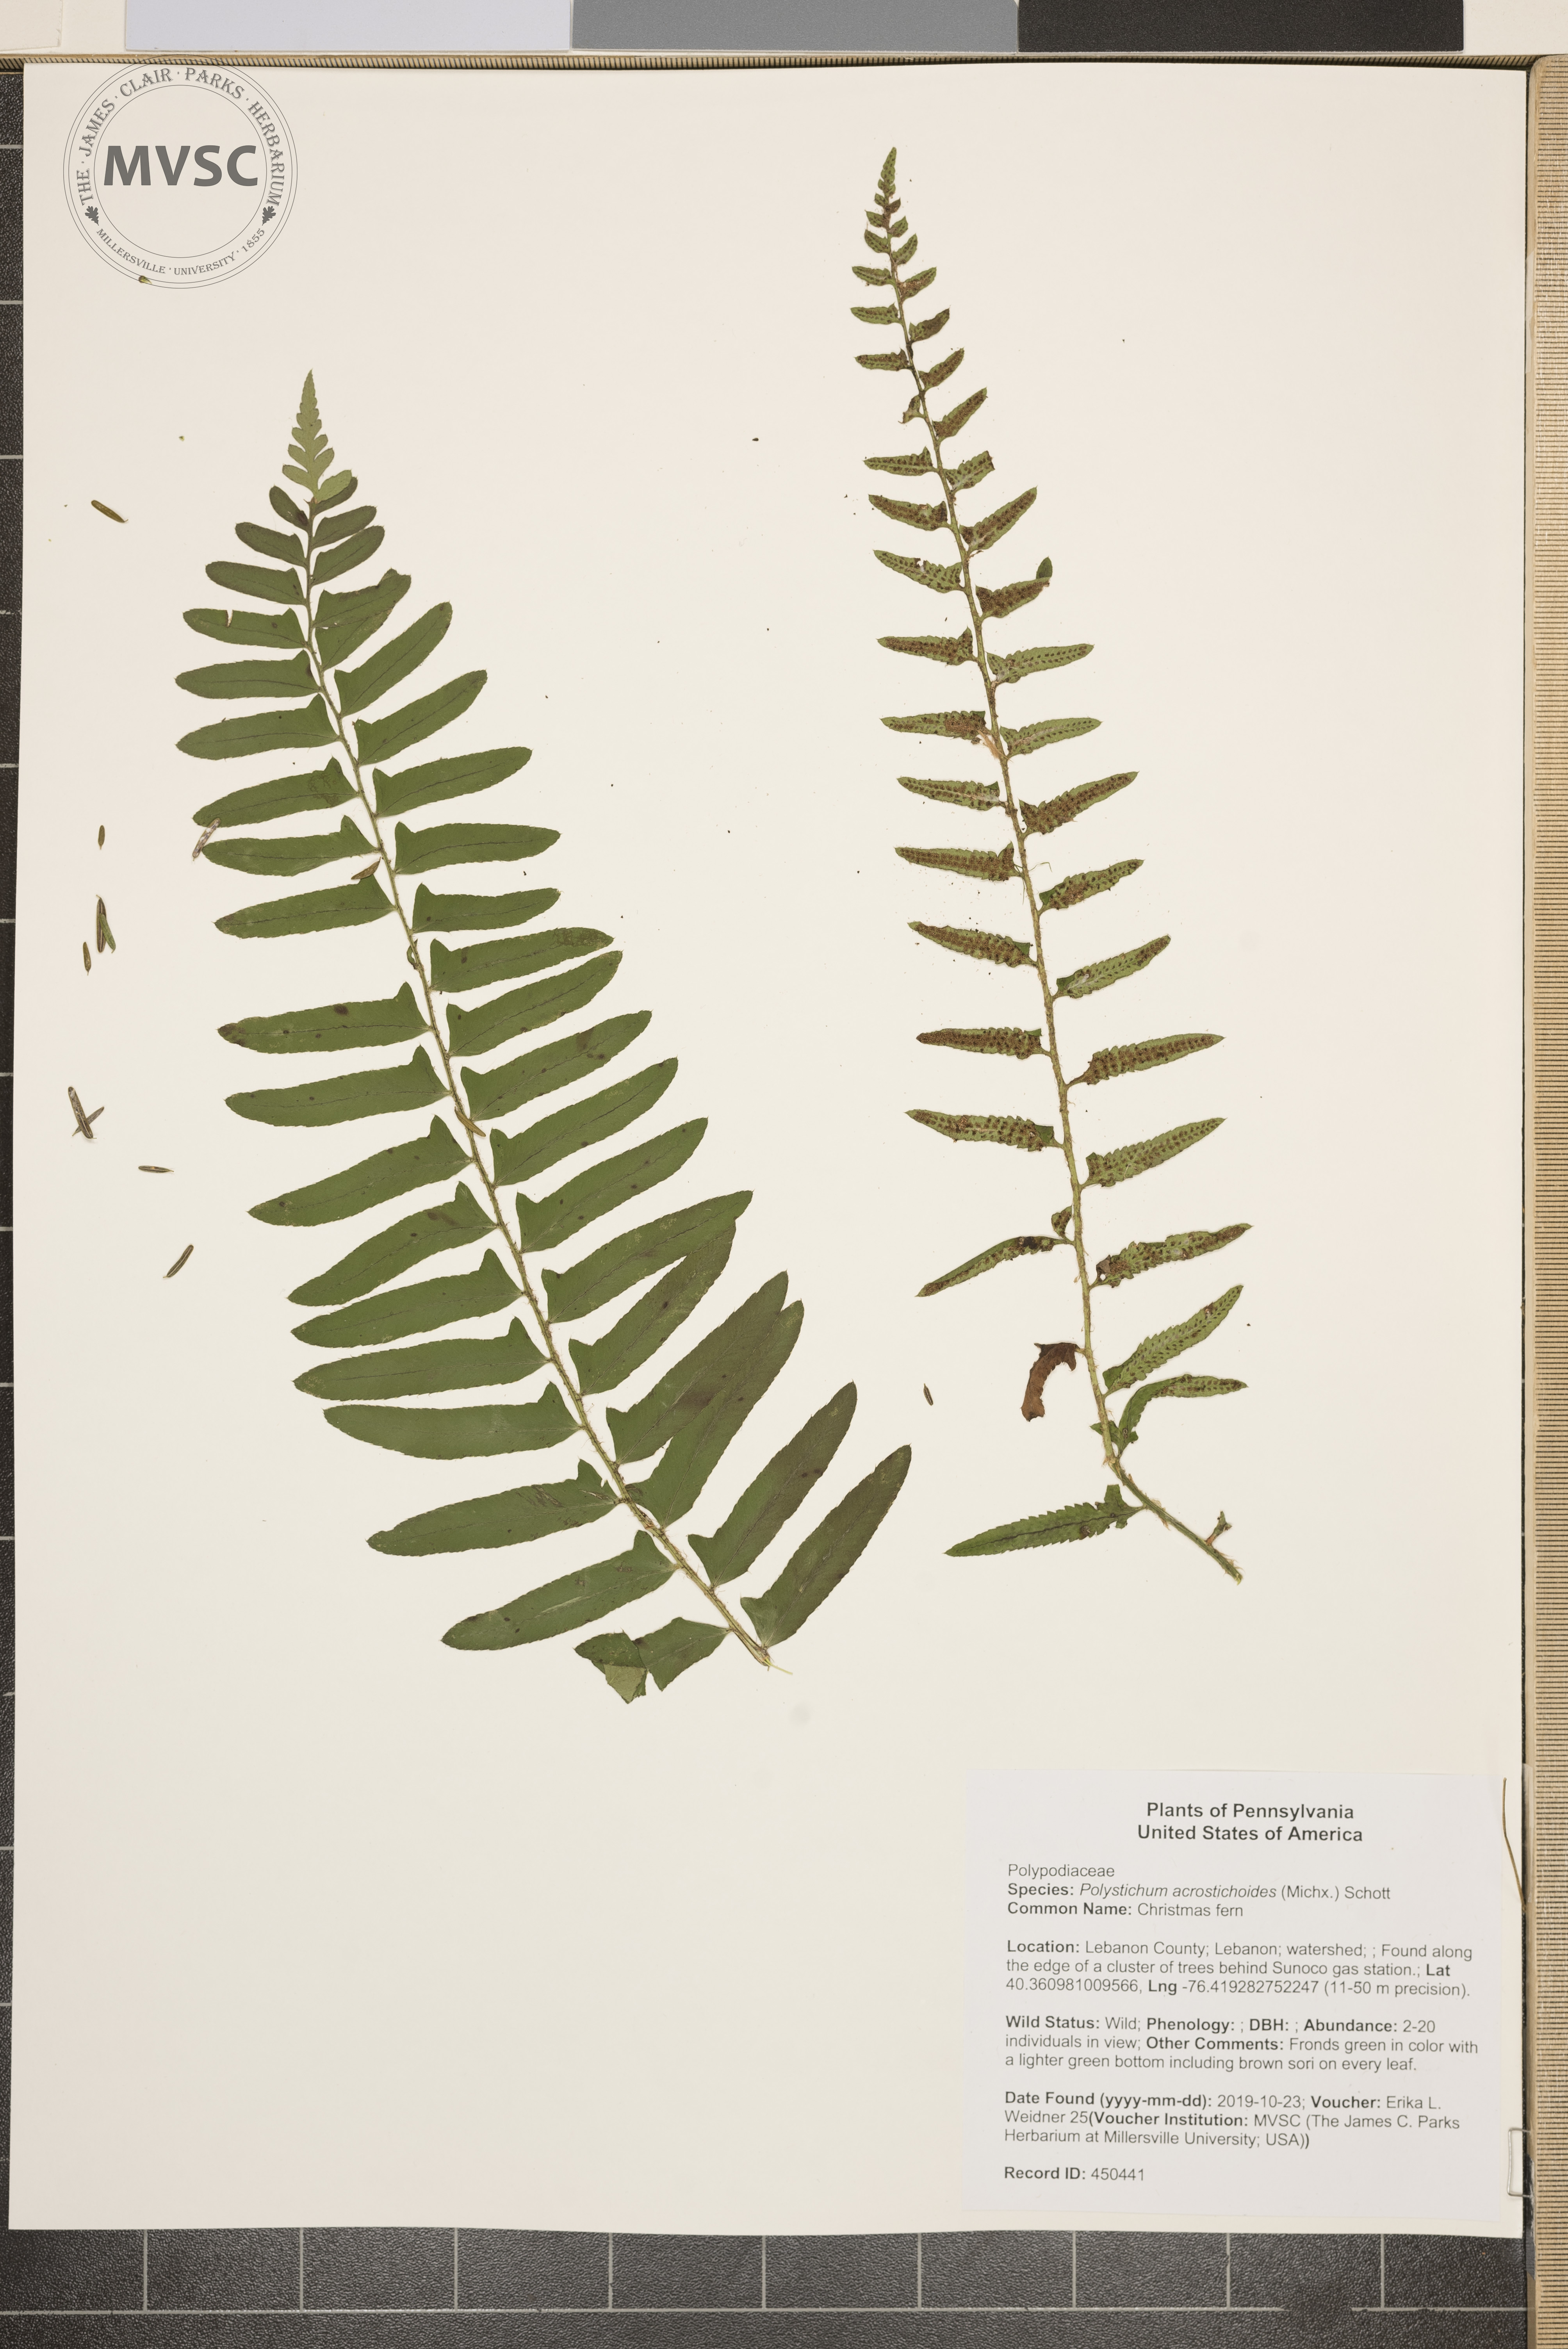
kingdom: Plantae
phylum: Tracheophyta
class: Polypodiopsida
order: Polypodiales
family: Dryopteridaceae
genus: Polystichum
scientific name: Polystichum acrostichoides
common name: Christmas fern
